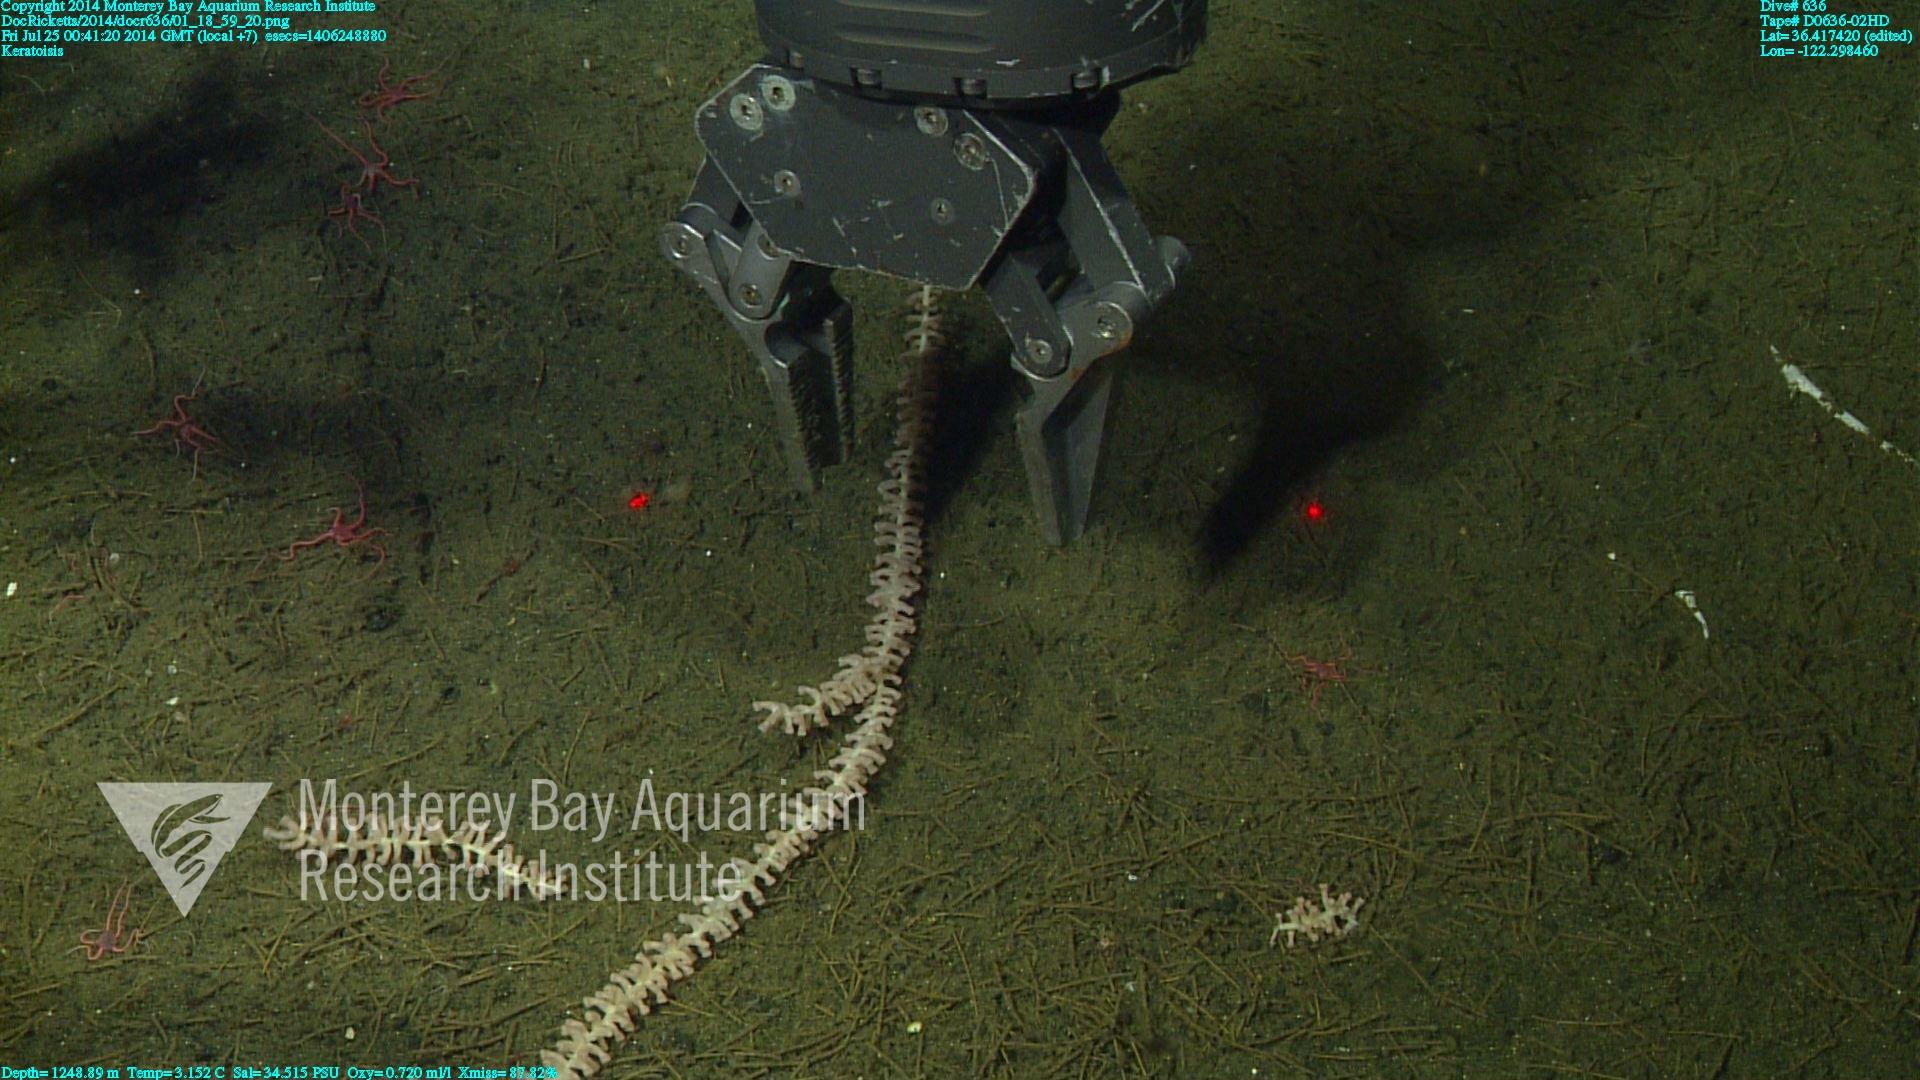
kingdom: Animalia
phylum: Cnidaria
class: Anthozoa
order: Scleralcyonacea
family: Keratoisididae
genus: Keratoisis
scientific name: Keratoisis
